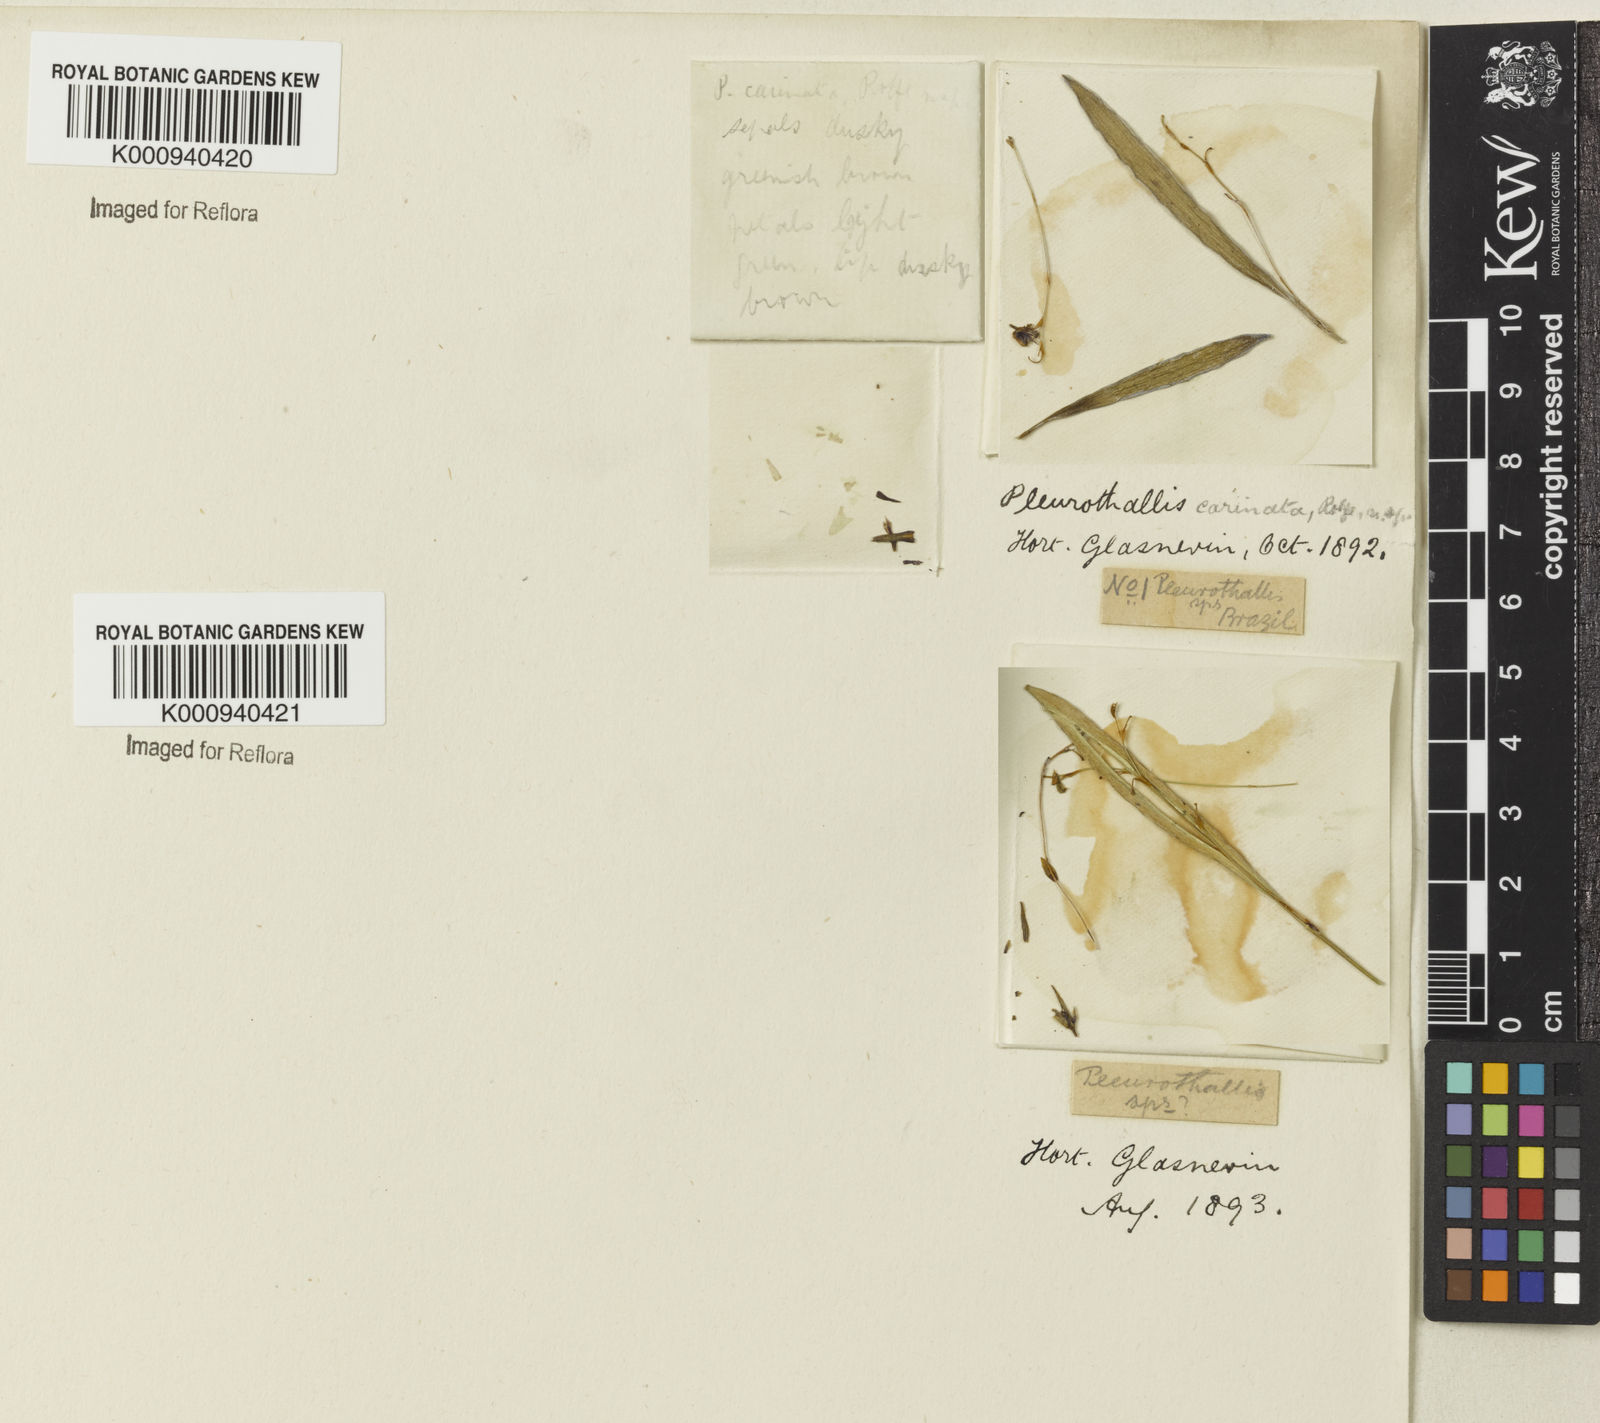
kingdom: Plantae
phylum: Tracheophyta
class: Liliopsida
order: Asparagales
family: Orchidaceae
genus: Acianthera
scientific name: Acianthera carinata
